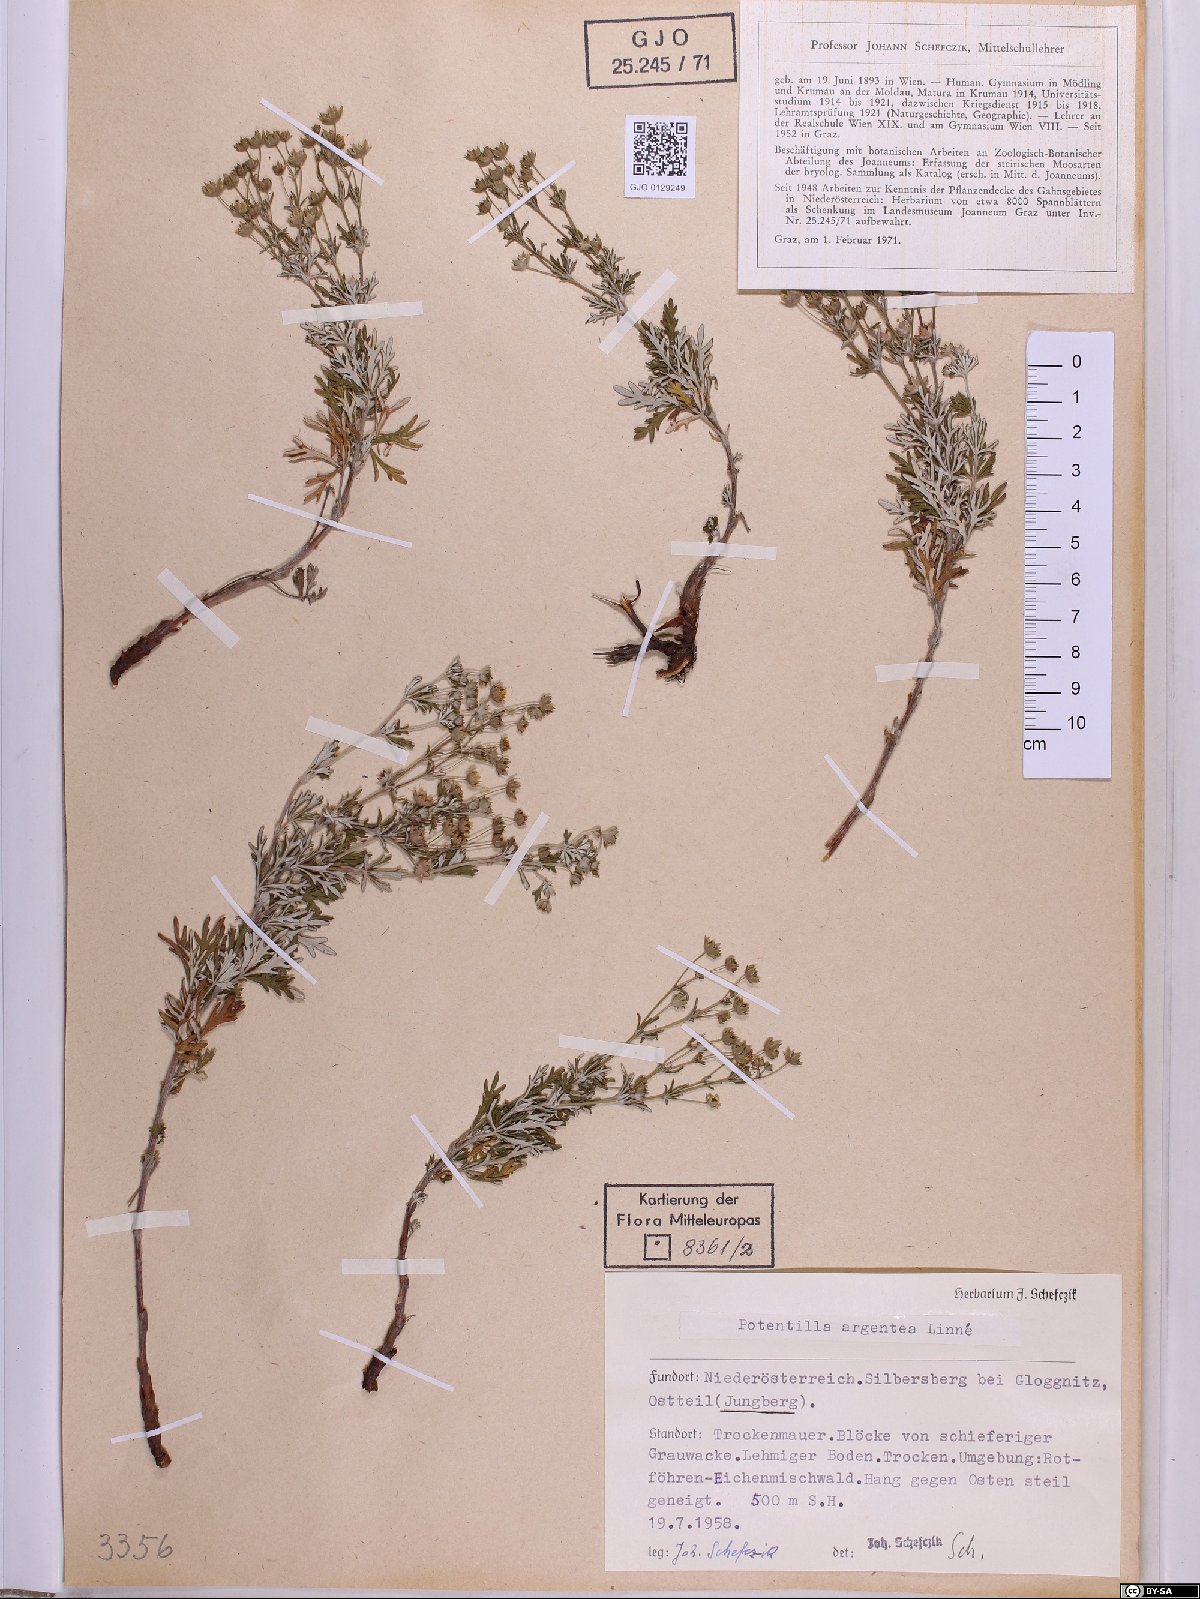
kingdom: Plantae
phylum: Tracheophyta
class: Magnoliopsida
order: Rosales
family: Rosaceae
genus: Potentilla
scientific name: Potentilla argentea
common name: Hoary cinquefoil
